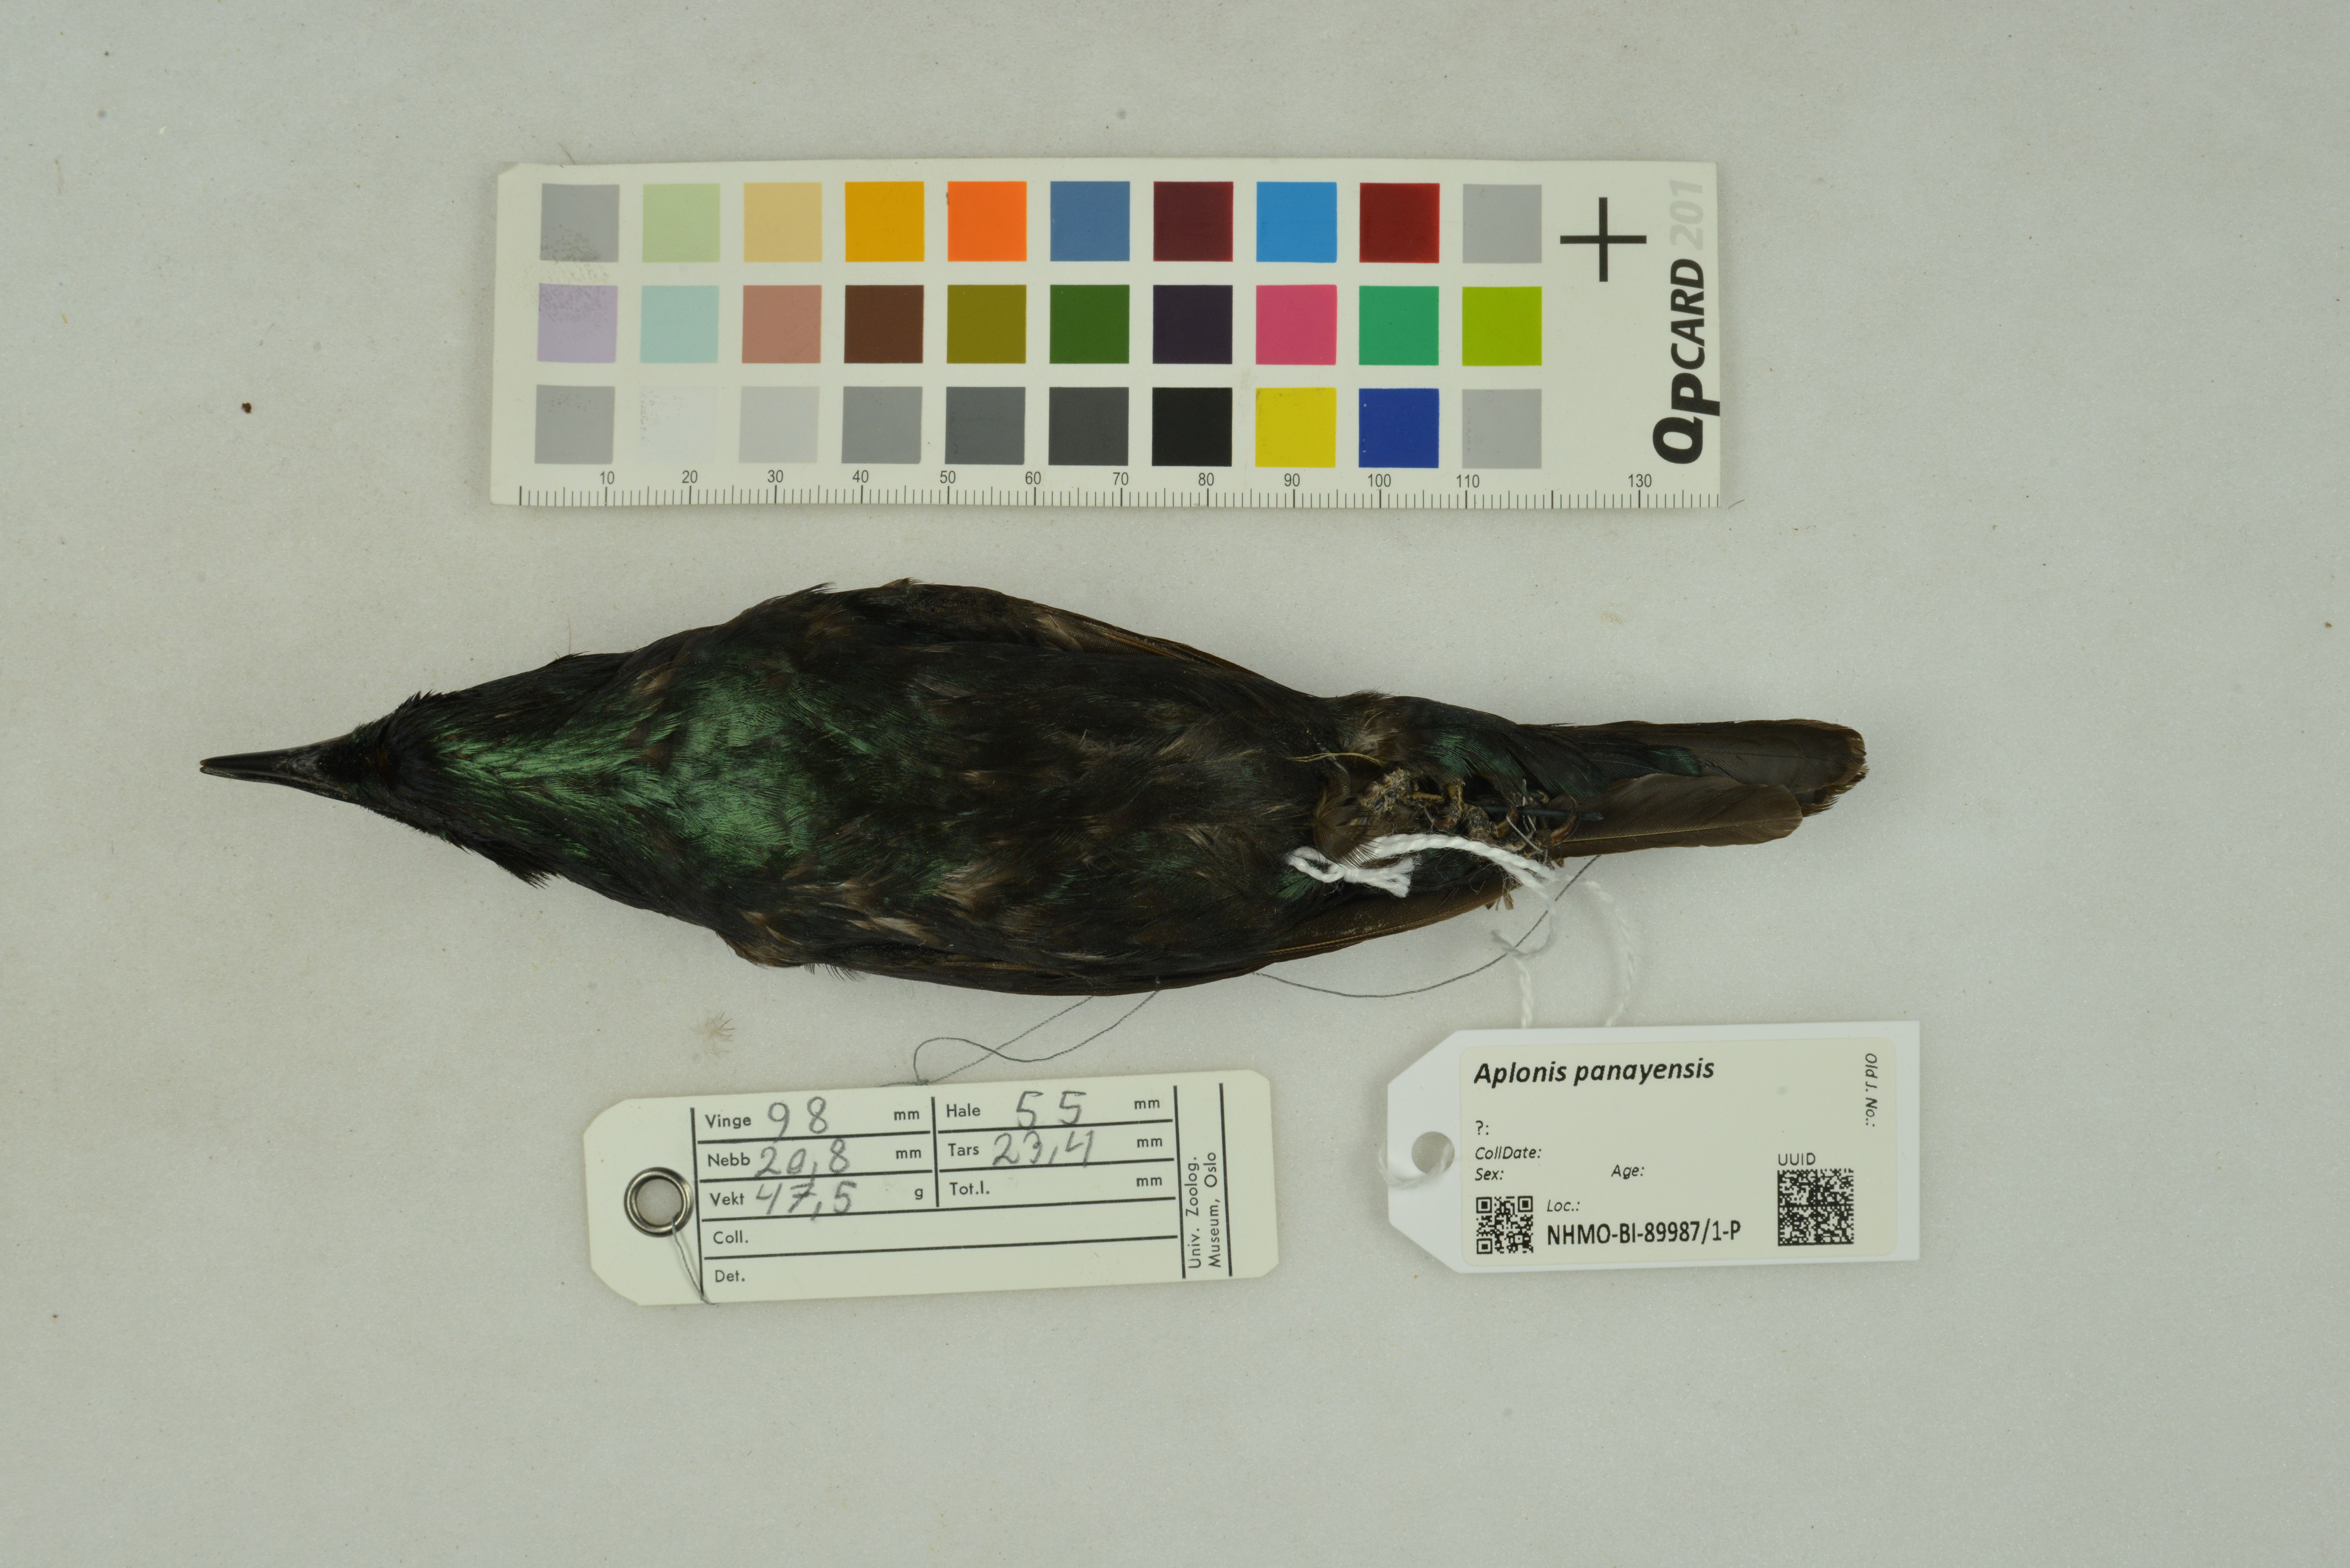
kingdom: Animalia
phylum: Chordata
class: Aves
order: Passeriformes
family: Sturnidae
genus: Aplonis
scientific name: Aplonis panayensis
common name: Asian glossy starling
